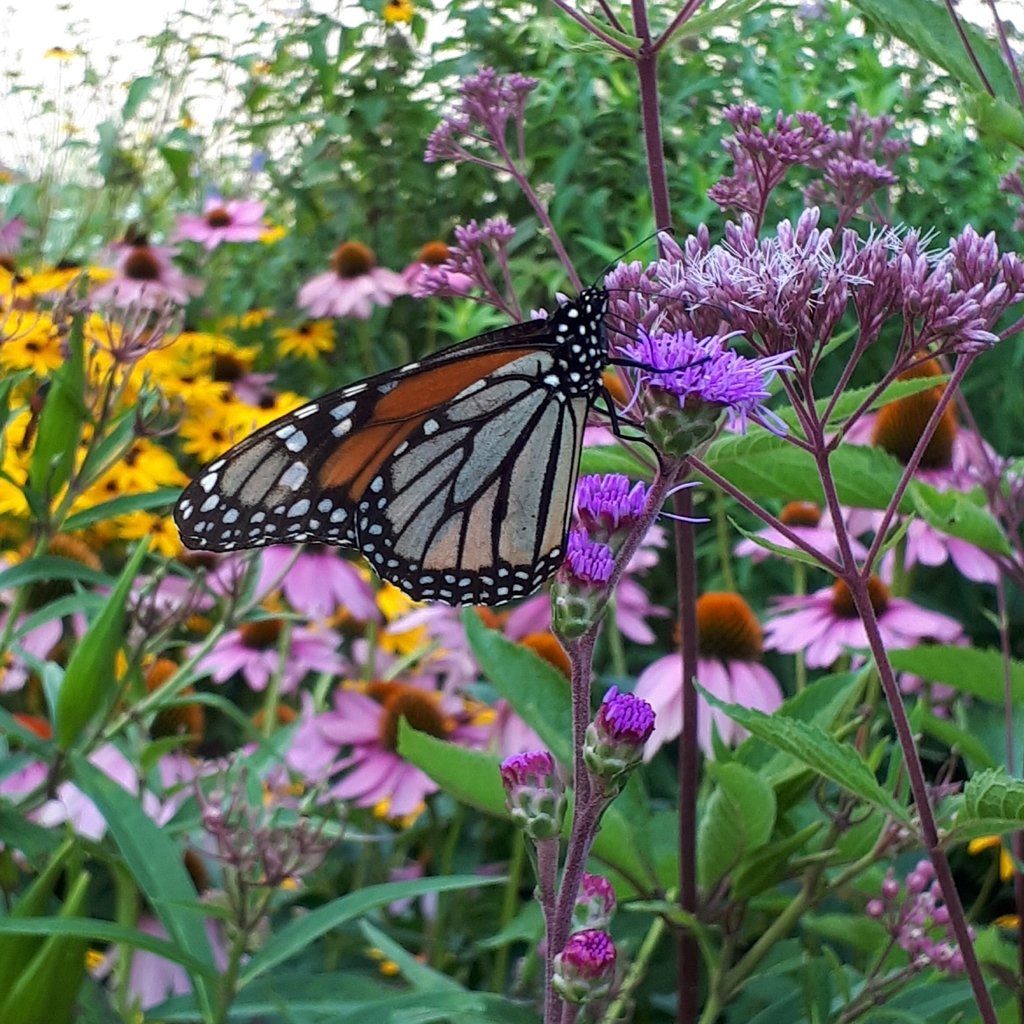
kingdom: Animalia
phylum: Arthropoda
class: Insecta
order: Lepidoptera
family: Nymphalidae
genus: Danaus
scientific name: Danaus plexippus
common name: Monarch
